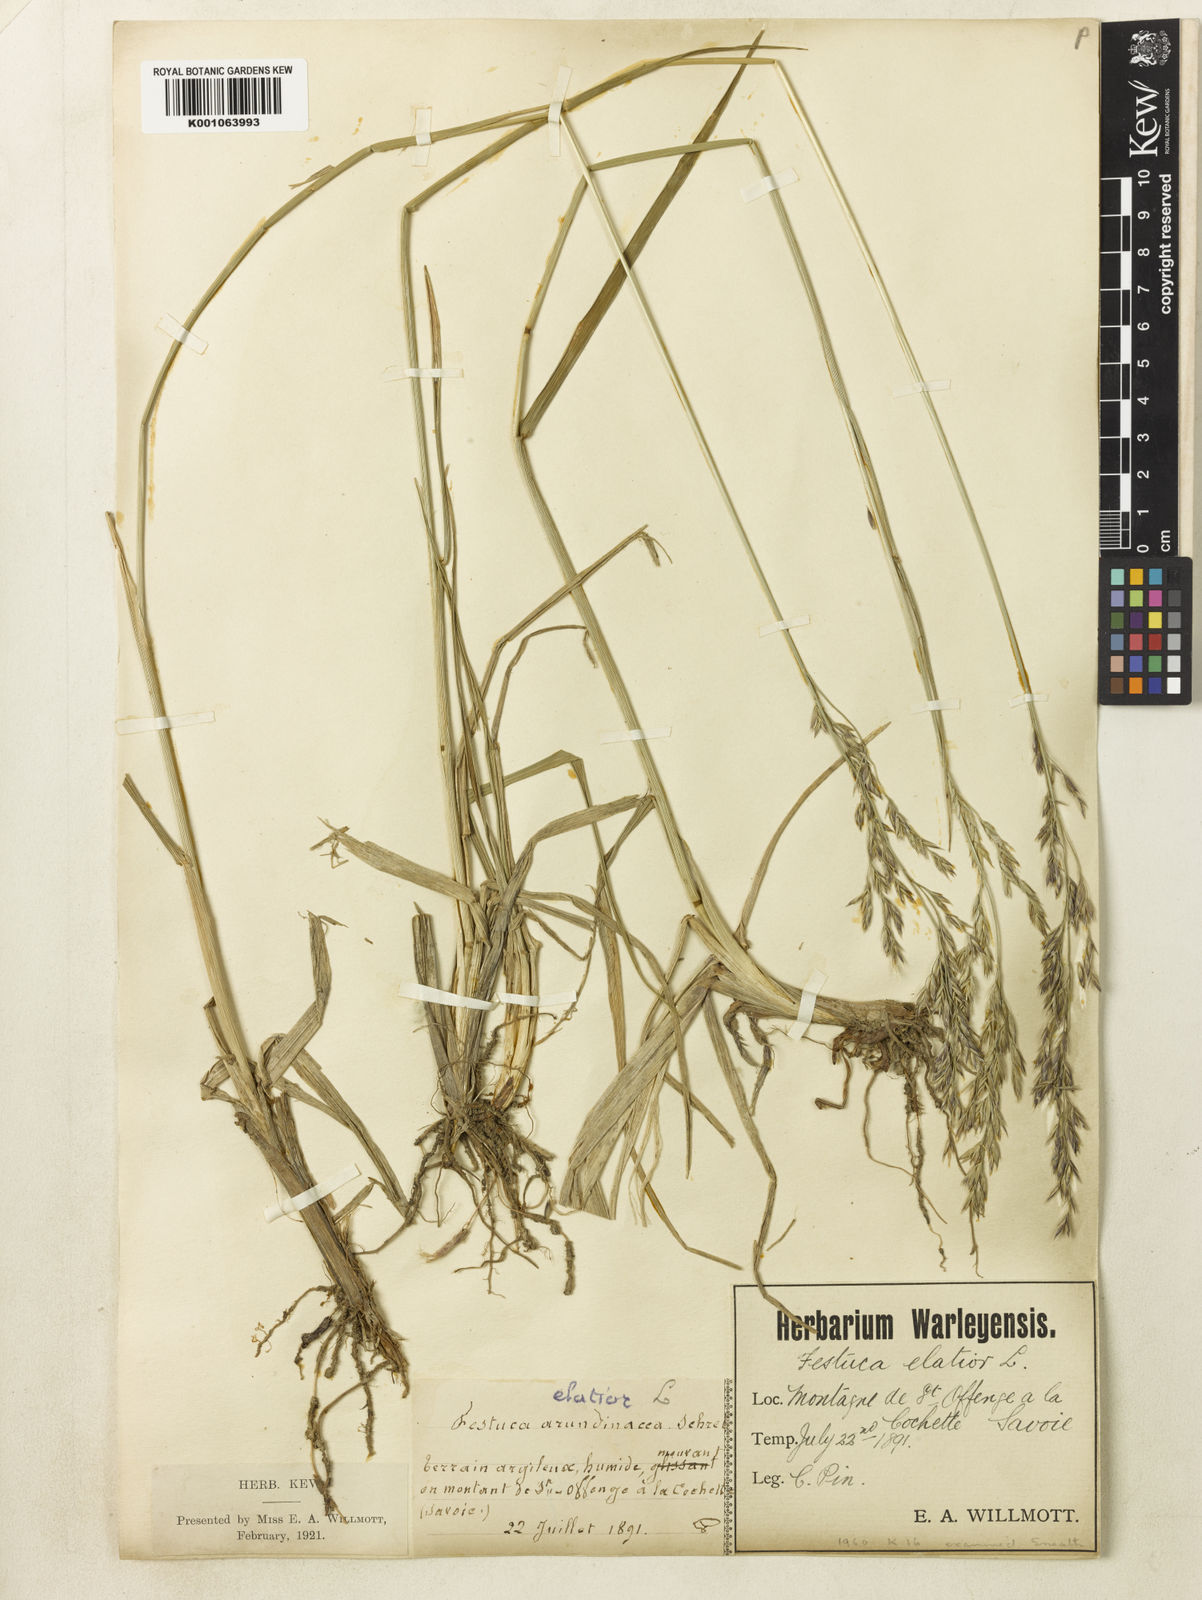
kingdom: Plantae
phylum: Tracheophyta
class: Liliopsida
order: Poales
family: Poaceae
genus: Lolium
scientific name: Lolium arundinaceum
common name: Reed fescue
